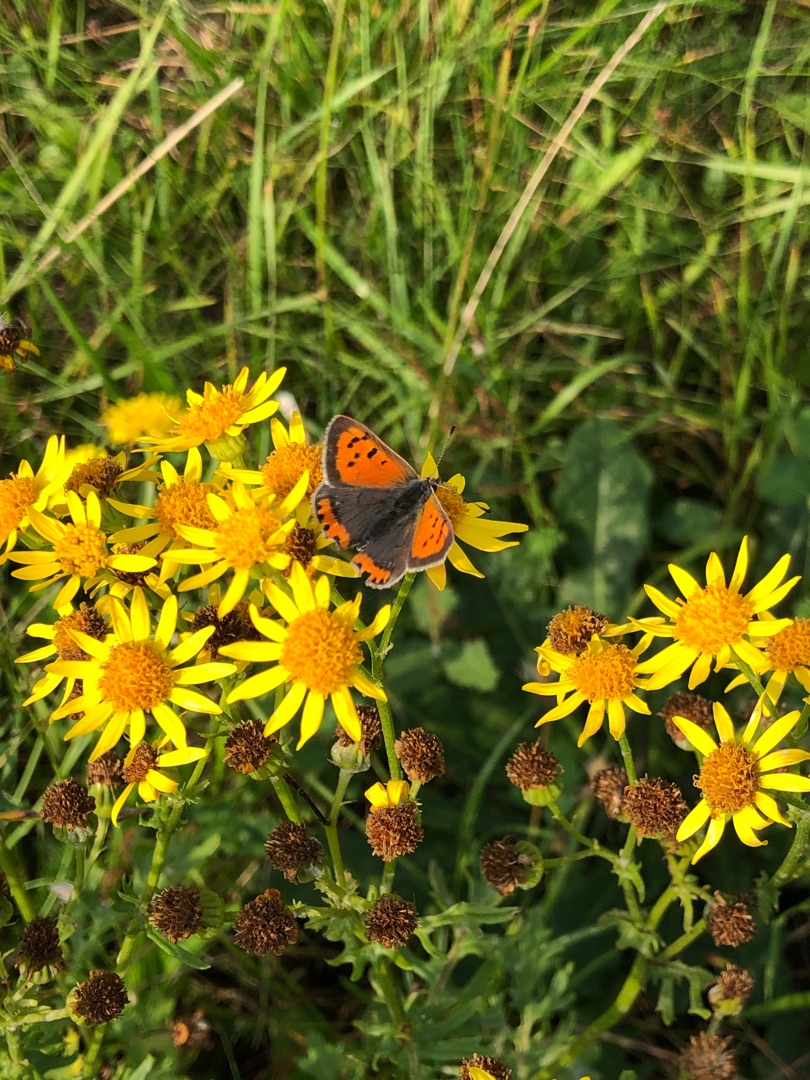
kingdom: Animalia
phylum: Arthropoda
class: Insecta
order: Lepidoptera
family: Lycaenidae
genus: Lycaena
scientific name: Lycaena phlaeas
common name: Lille ildfugl
